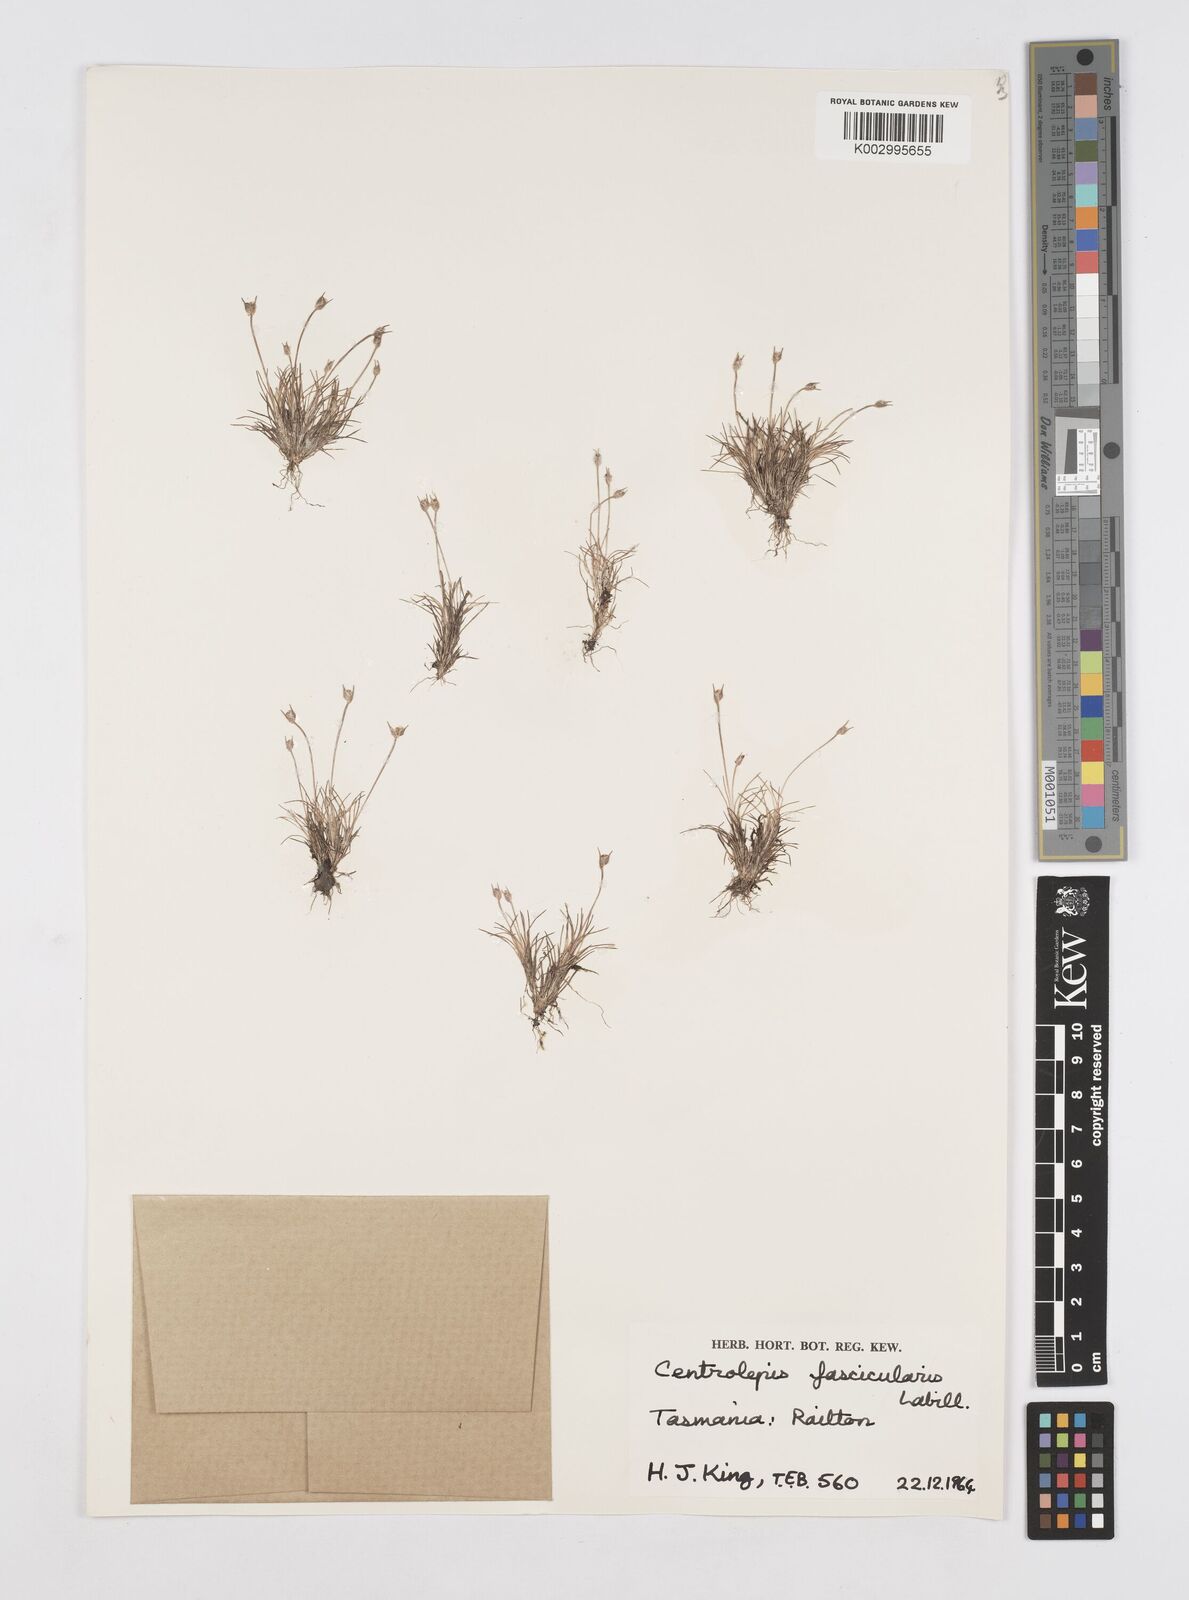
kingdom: Plantae
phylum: Tracheophyta
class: Liliopsida
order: Poales
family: Restionaceae
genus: Centrolepis
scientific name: Centrolepis fascicularis
